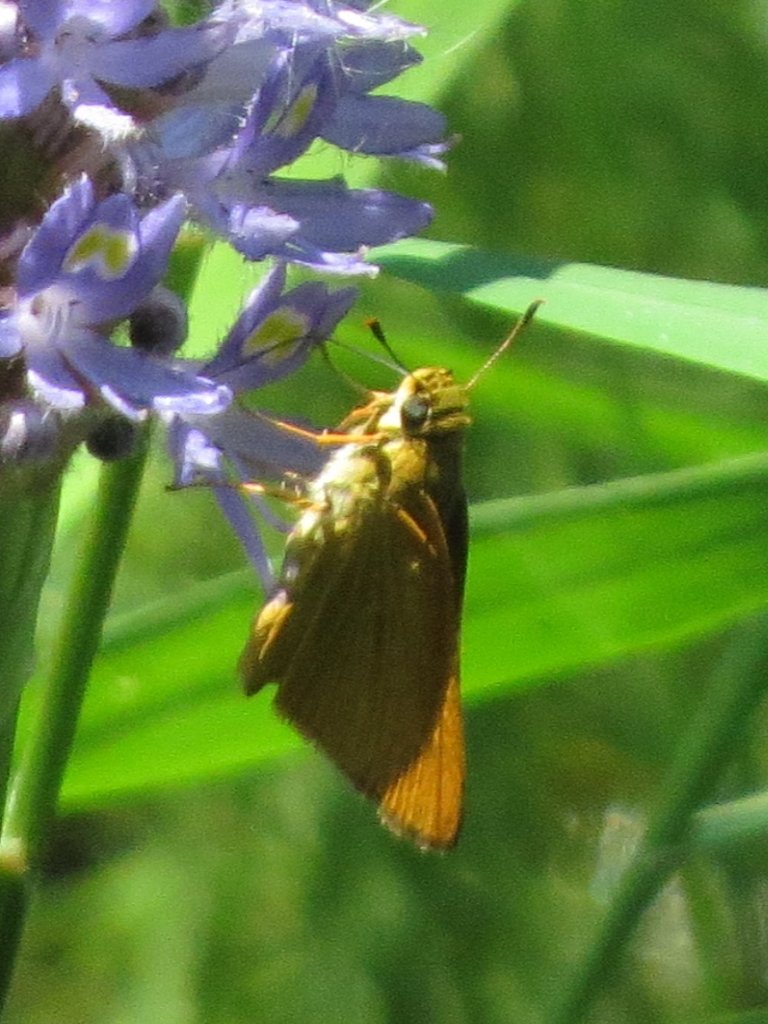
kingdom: Animalia
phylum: Arthropoda
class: Insecta
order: Lepidoptera
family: Hesperiidae
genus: Problema
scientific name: Problema bulenta
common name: Rare Skipper
